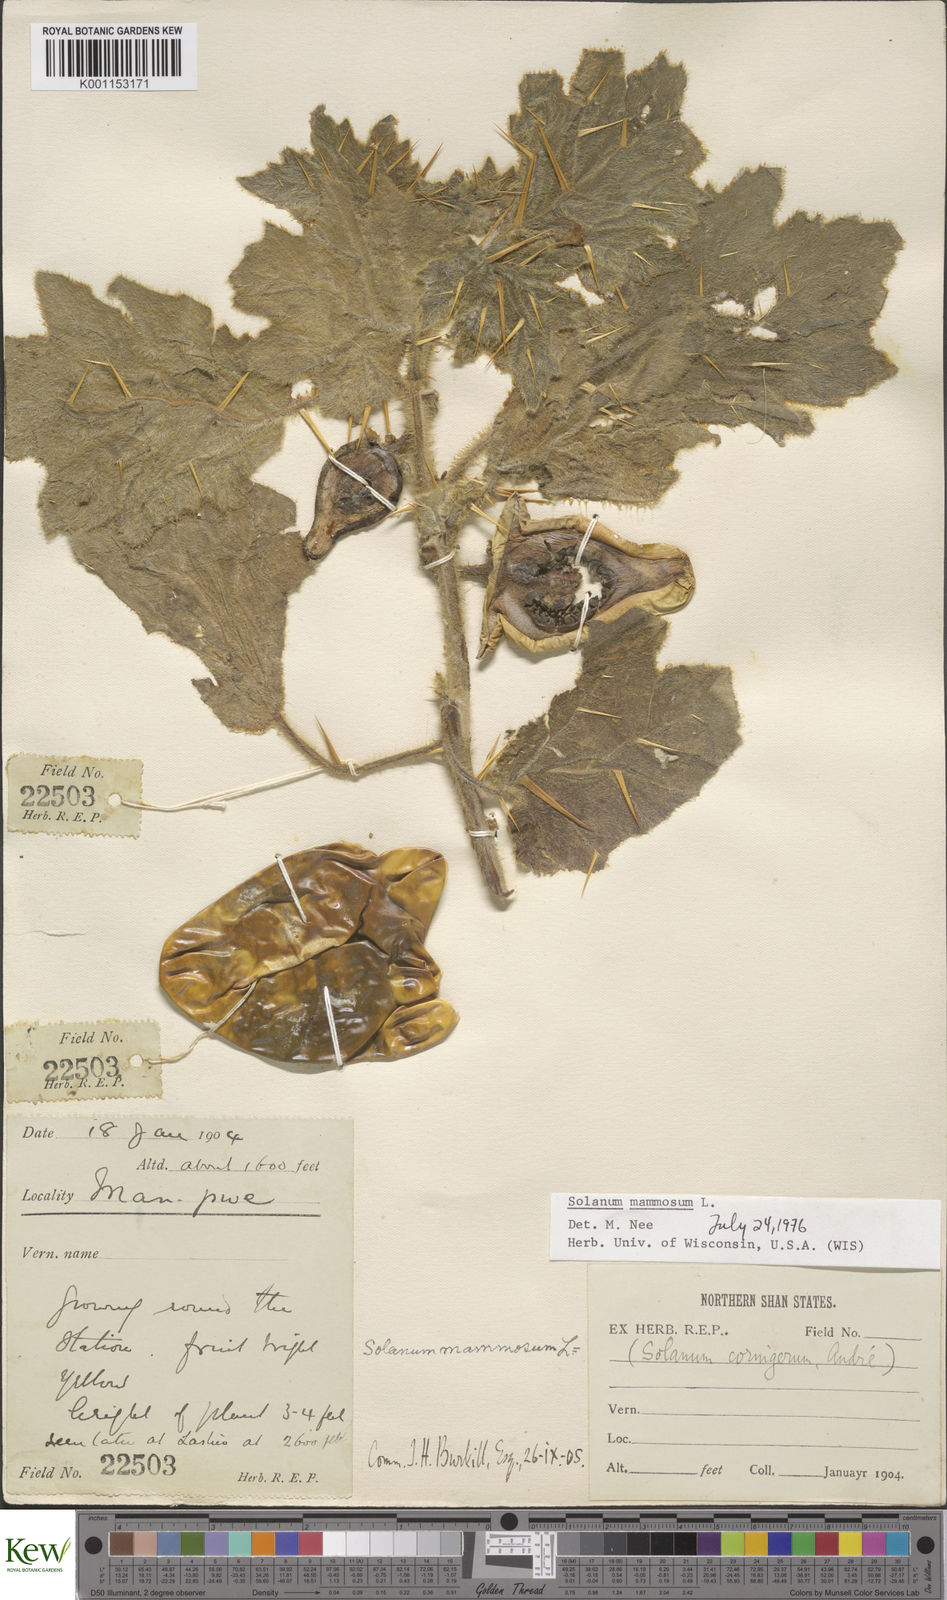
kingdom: Plantae
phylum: Tracheophyta
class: Magnoliopsida
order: Solanales
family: Solanaceae
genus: Solanum
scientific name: Solanum mammosum
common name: Nipple fruit
